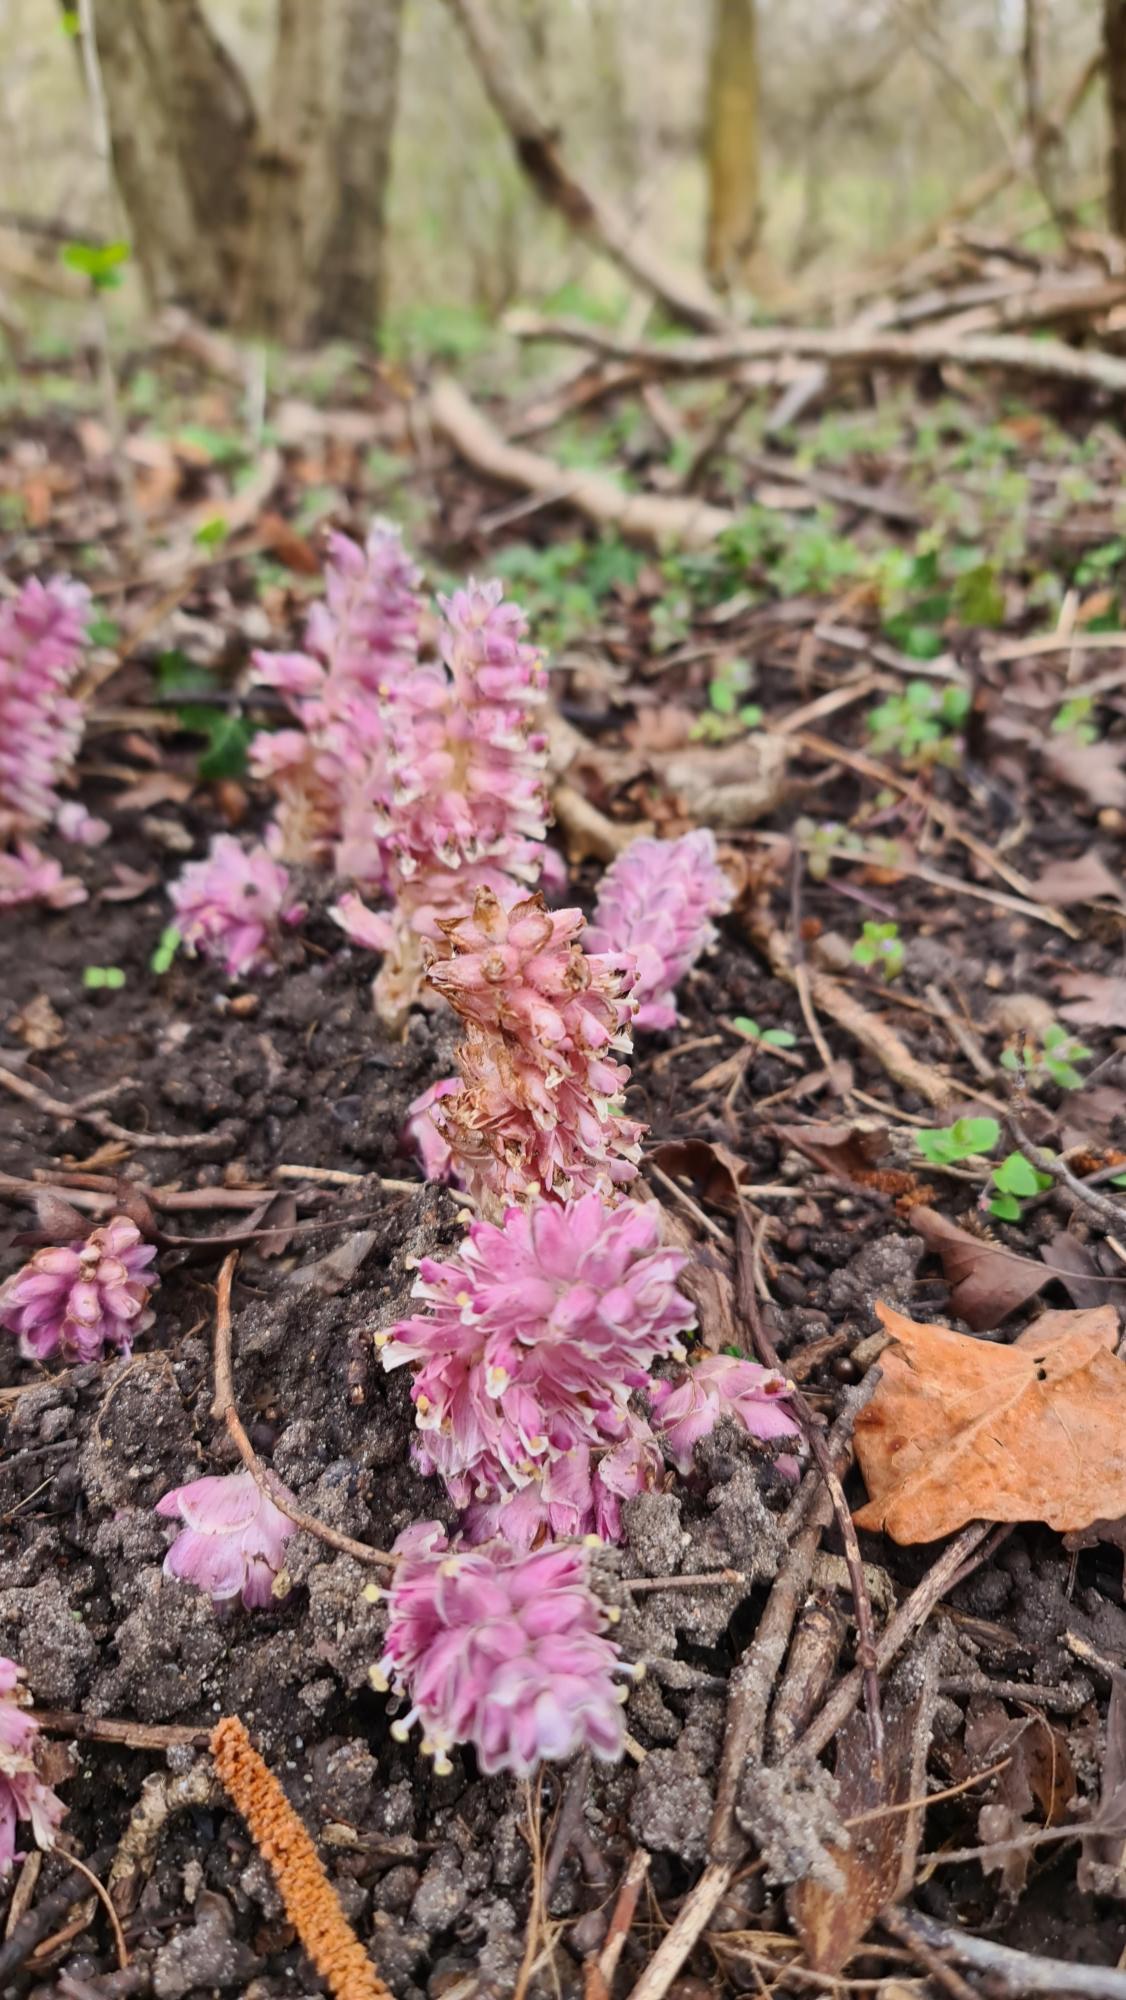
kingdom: Plantae
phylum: Tracheophyta
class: Magnoliopsida
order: Lamiales
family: Orobanchaceae
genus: Lathraea
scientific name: Lathraea squamaria
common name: Skælrod
